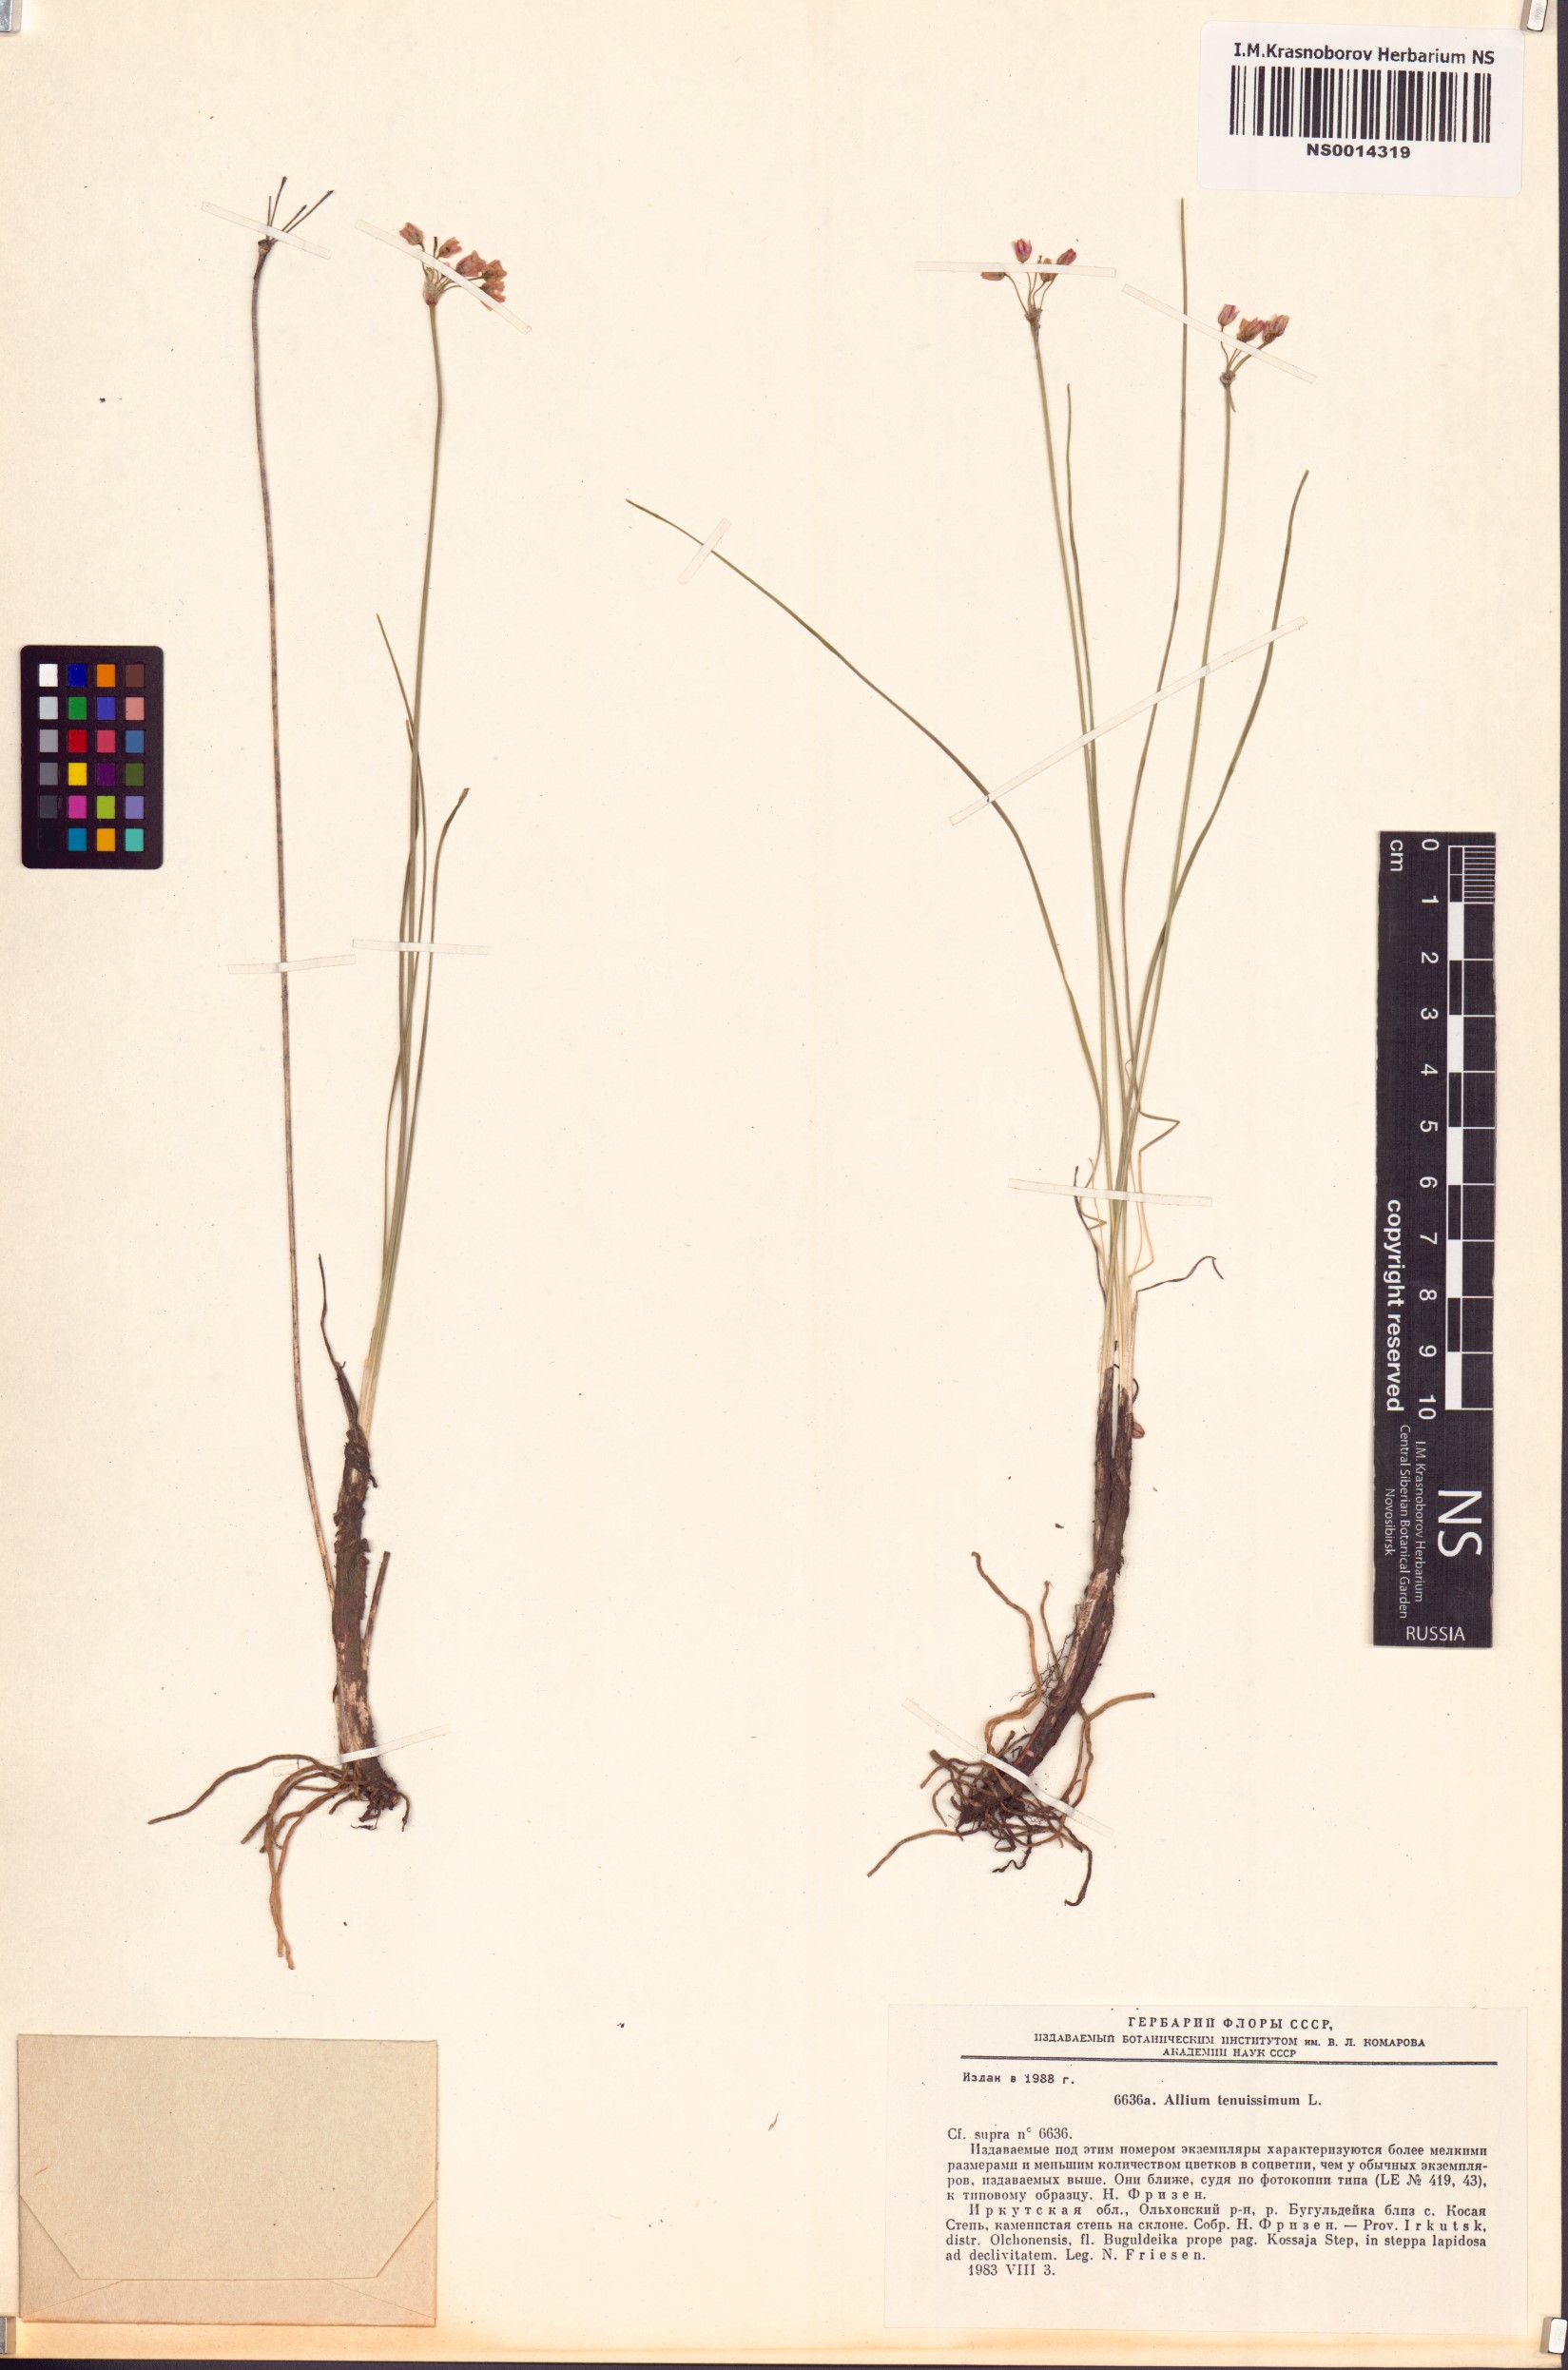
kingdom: Plantae
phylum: Tracheophyta
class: Liliopsida
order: Asparagales
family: Amaryllidaceae
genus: Allium
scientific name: Allium tenuissimum
